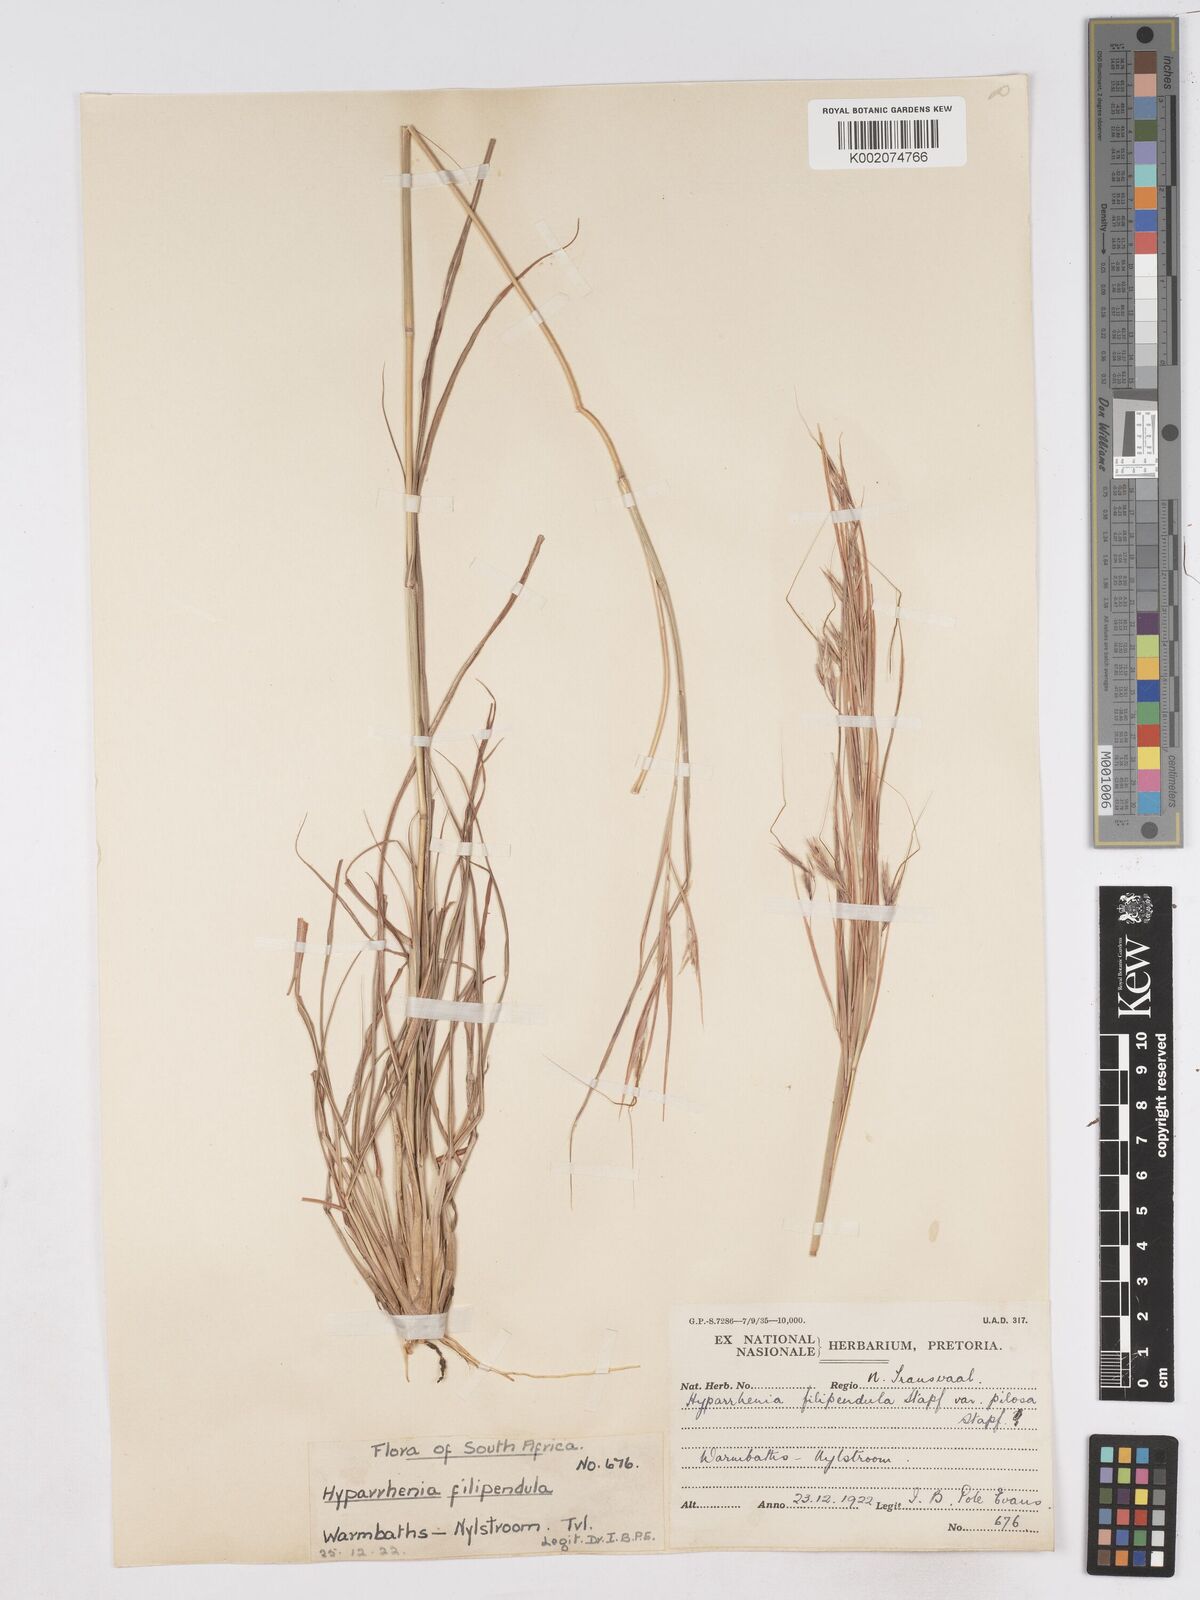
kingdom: Plantae
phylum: Tracheophyta
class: Liliopsida
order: Poales
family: Poaceae
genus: Hyparrhenia
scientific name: Hyparrhenia filipendula
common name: Tambookie grass
